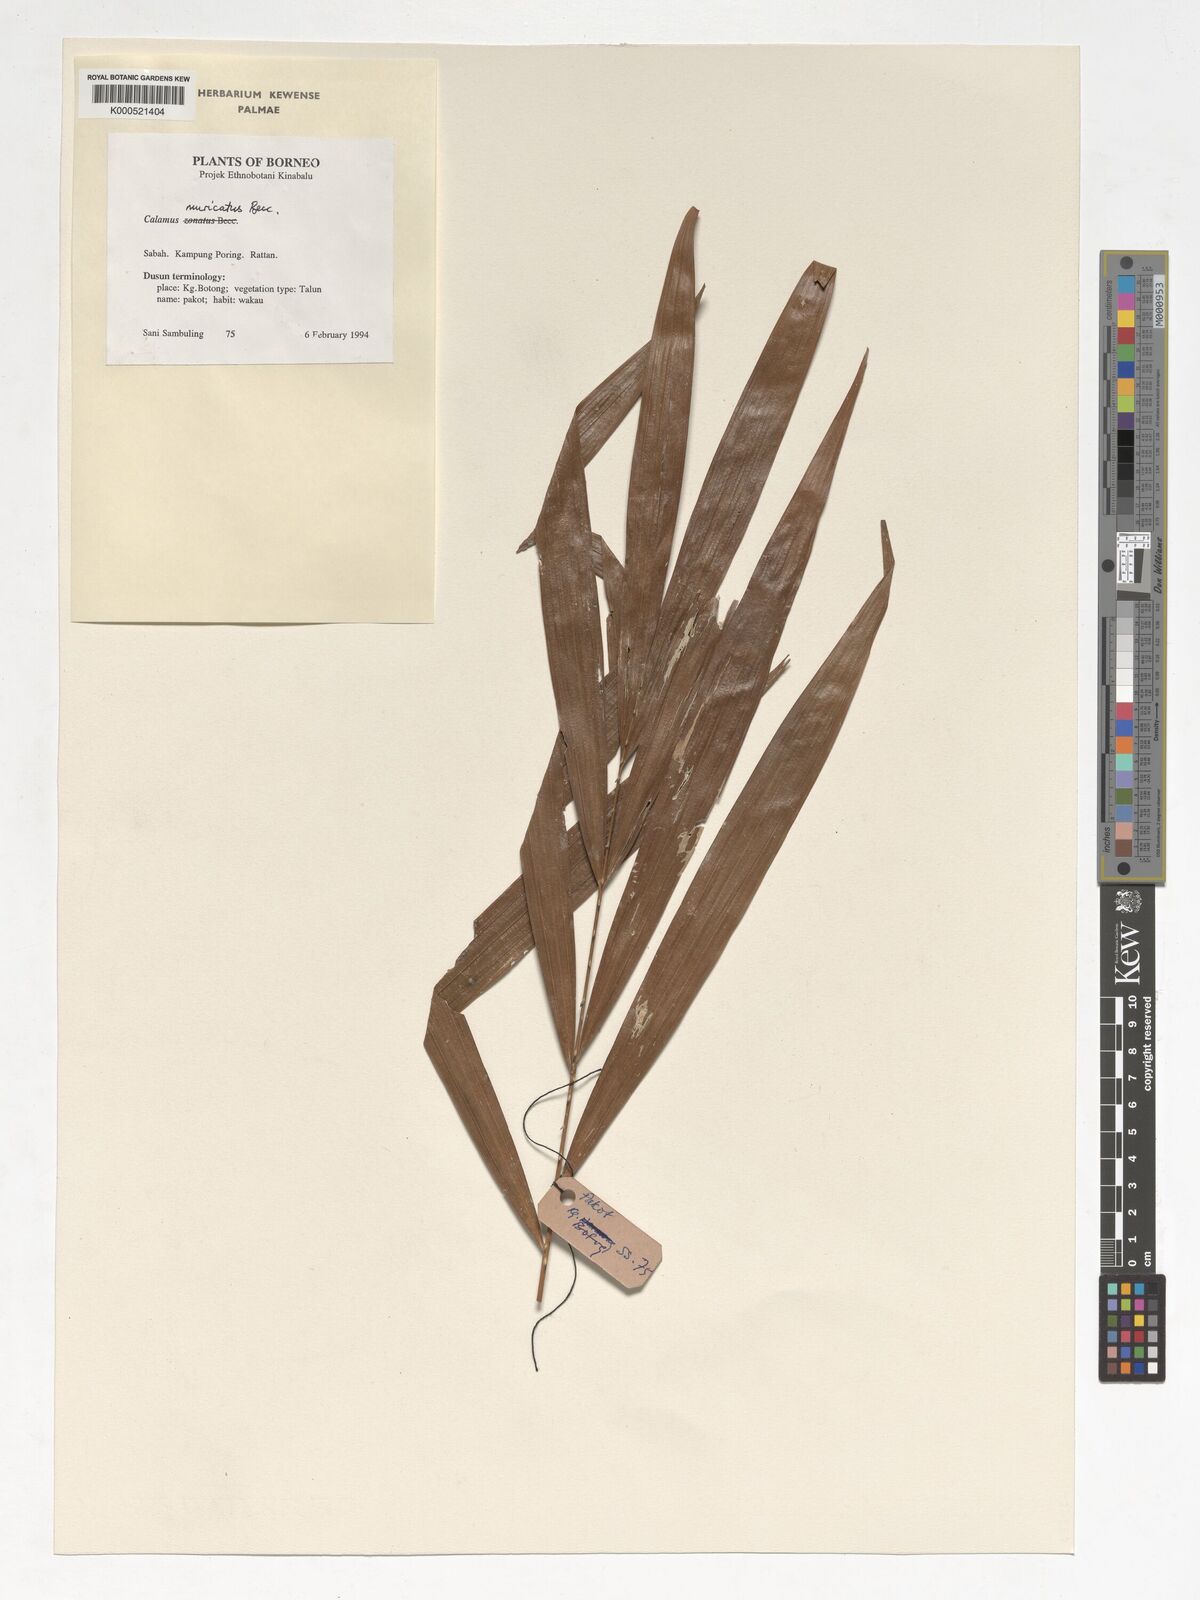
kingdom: Plantae
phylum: Tracheophyta
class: Liliopsida
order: Arecales
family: Arecaceae
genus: Calamus
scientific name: Calamus muricatus
